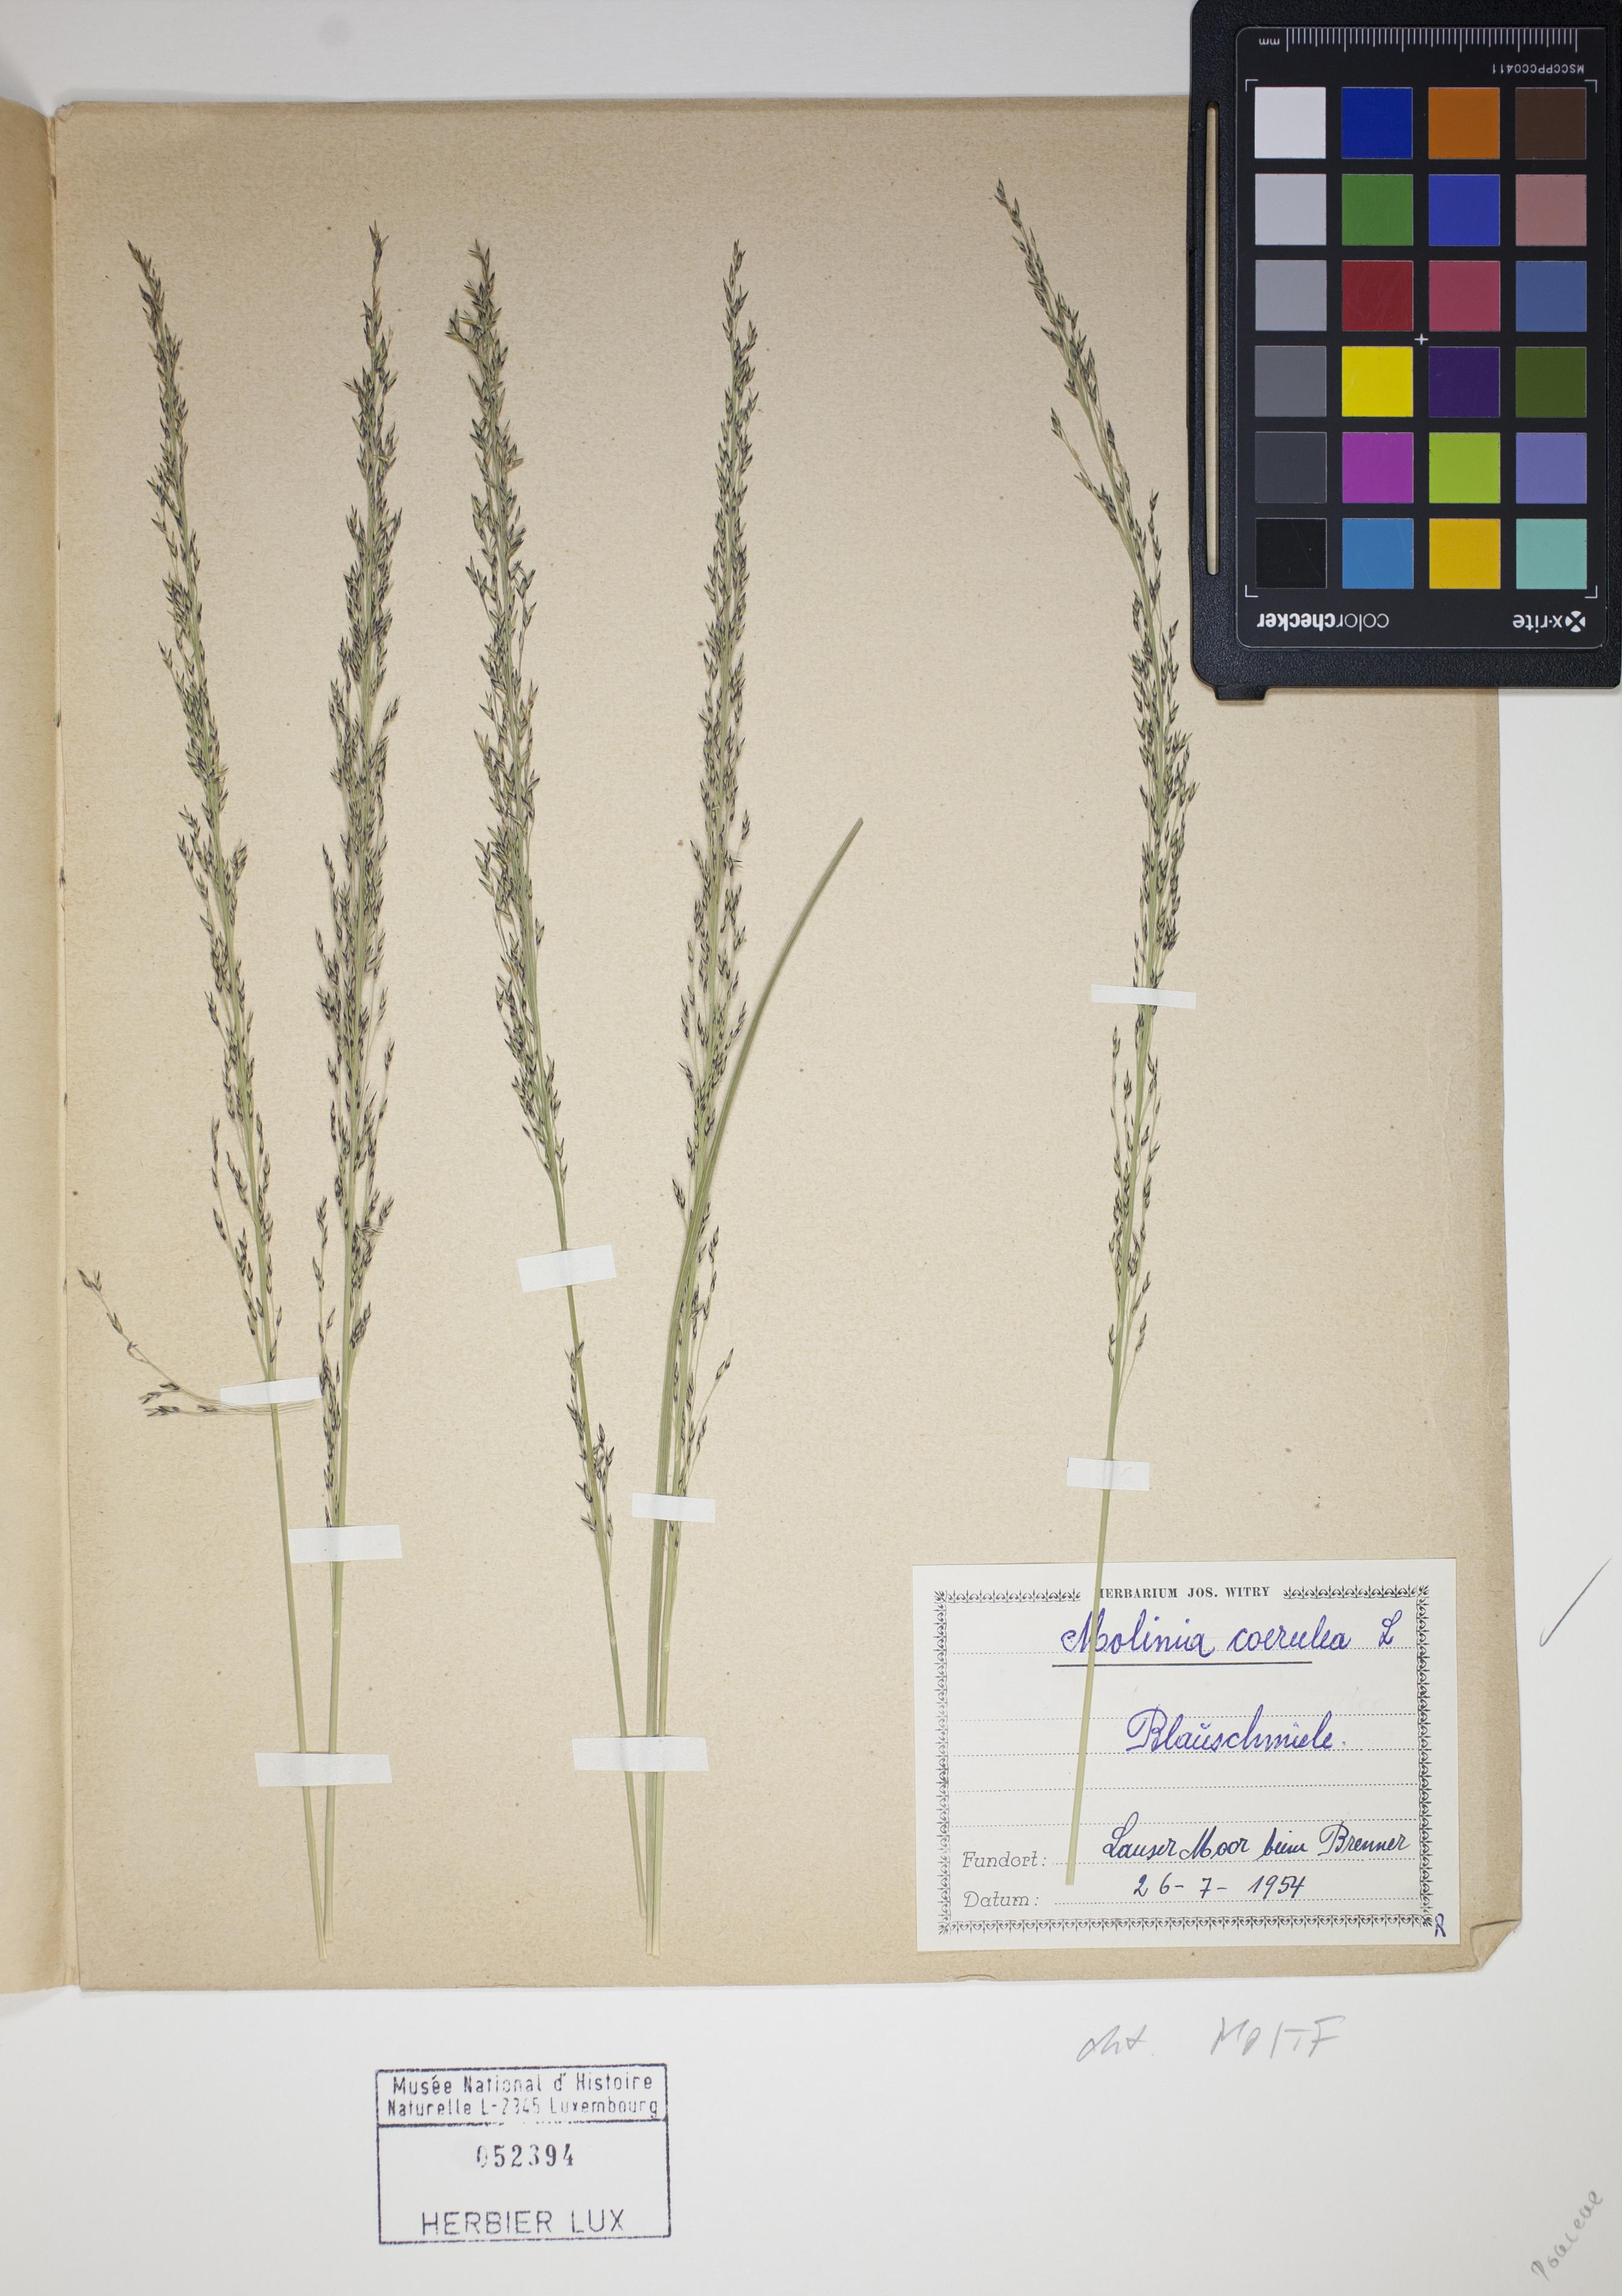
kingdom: Plantae
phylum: Tracheophyta
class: Liliopsida
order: Poales
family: Poaceae
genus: Molinia
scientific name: Molinia caerulea
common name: Purple moor-grass
